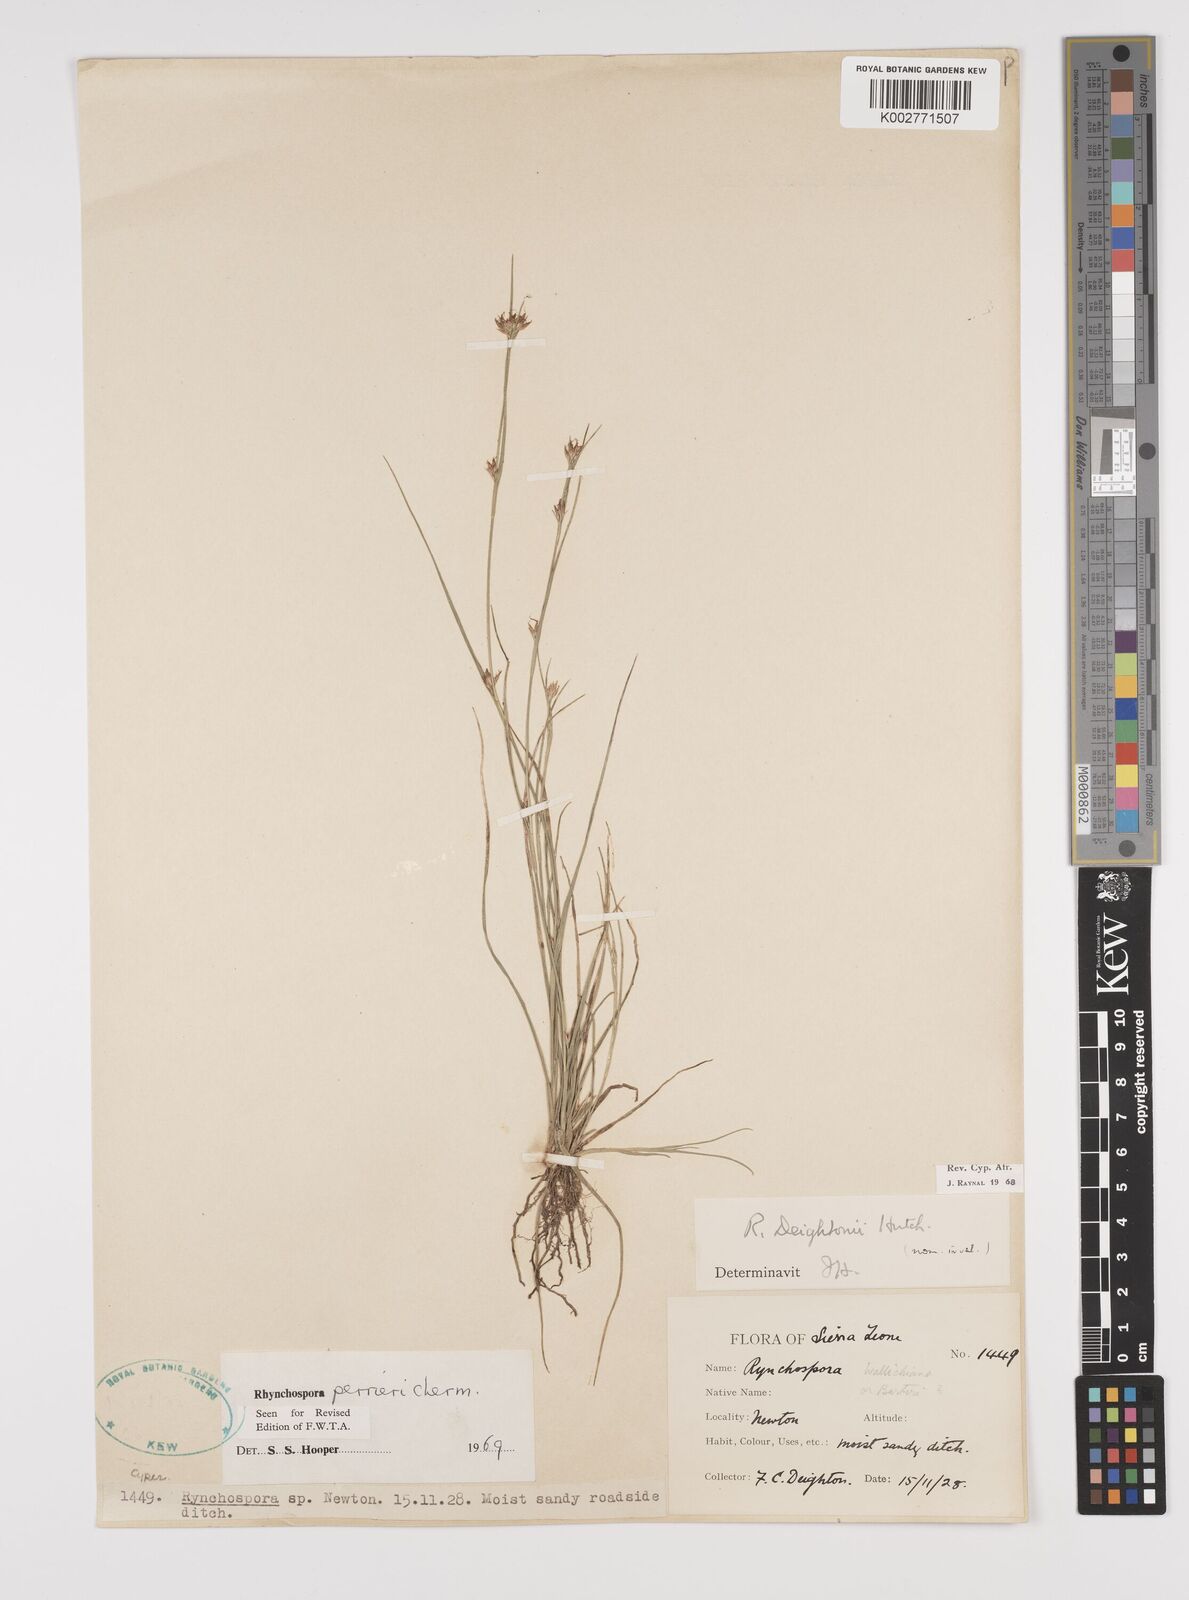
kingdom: Plantae
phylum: Tracheophyta
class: Liliopsida
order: Poales
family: Cyperaceae
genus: Rhynchospora
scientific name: Rhynchospora perrieri
